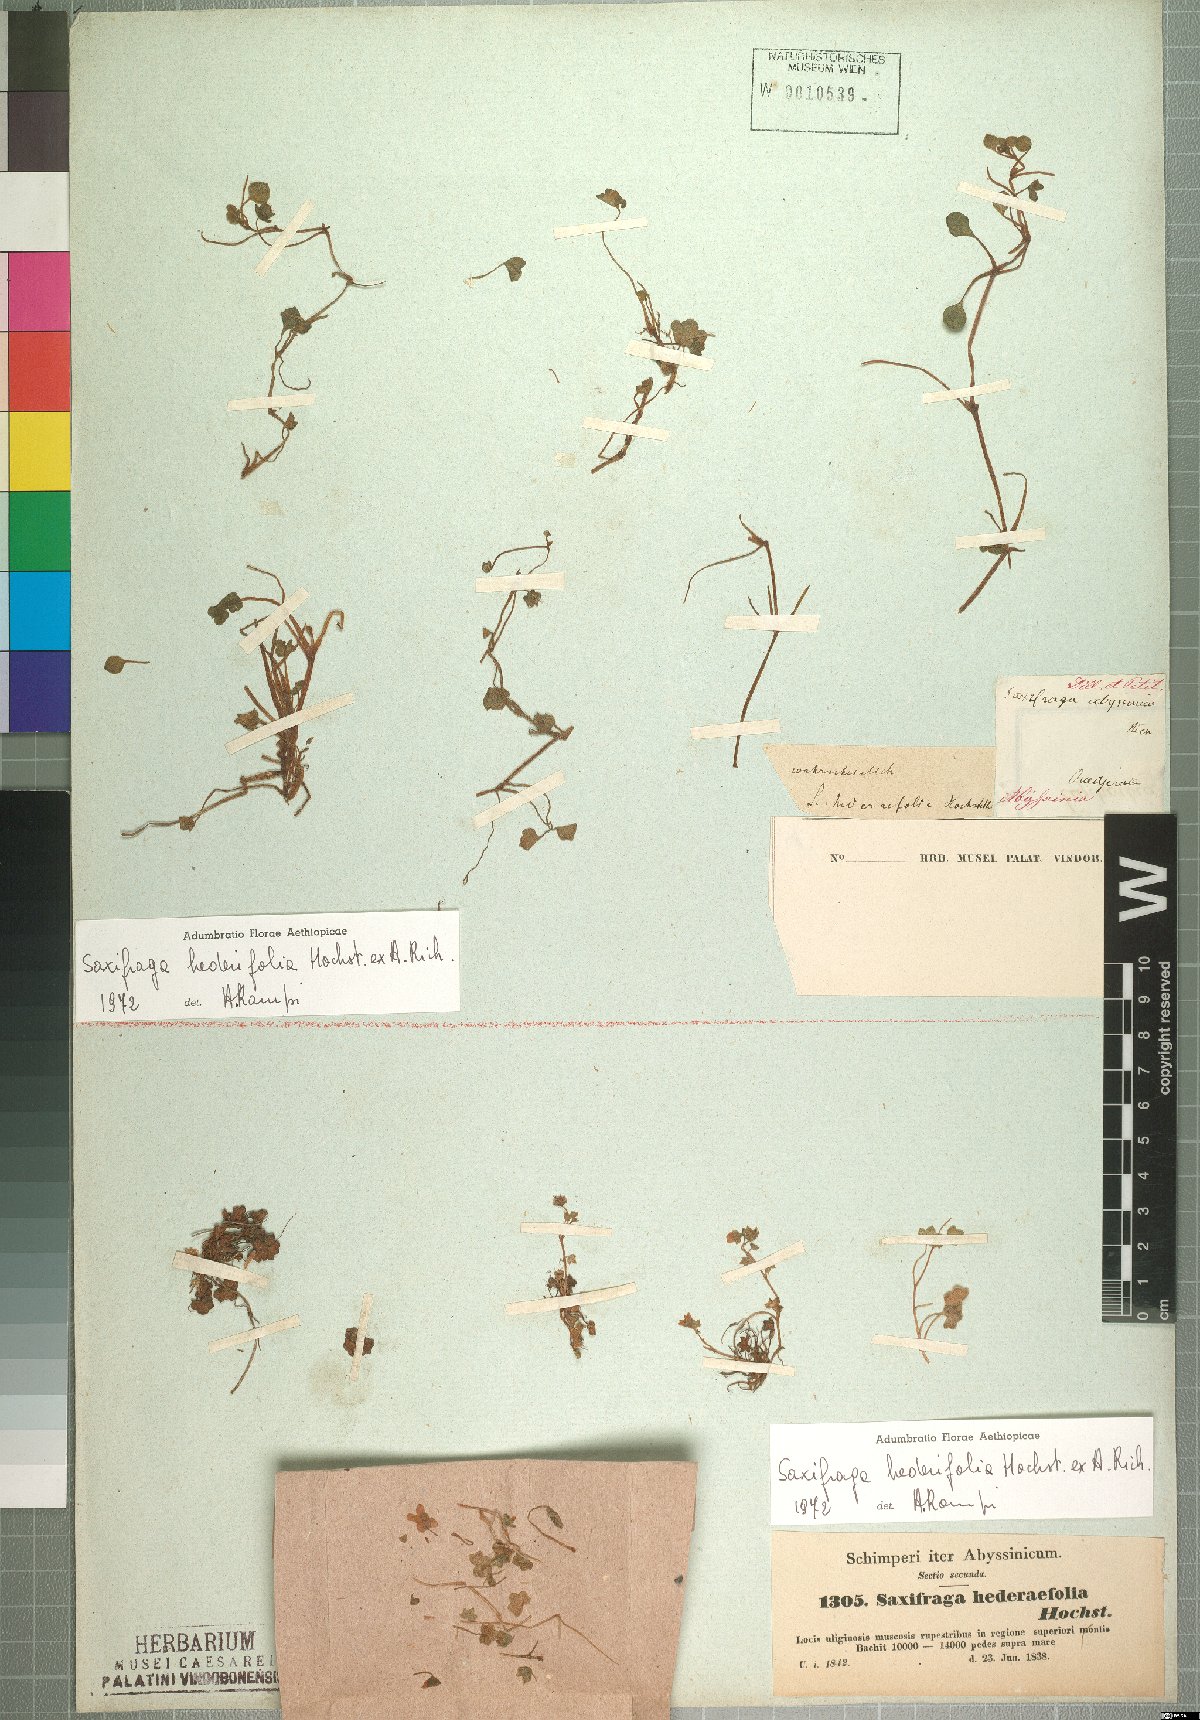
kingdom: Plantae
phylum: Tracheophyta
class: Magnoliopsida
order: Saxifragales
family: Saxifragaceae
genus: Saxifraga
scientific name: Saxifraga hederifolia
